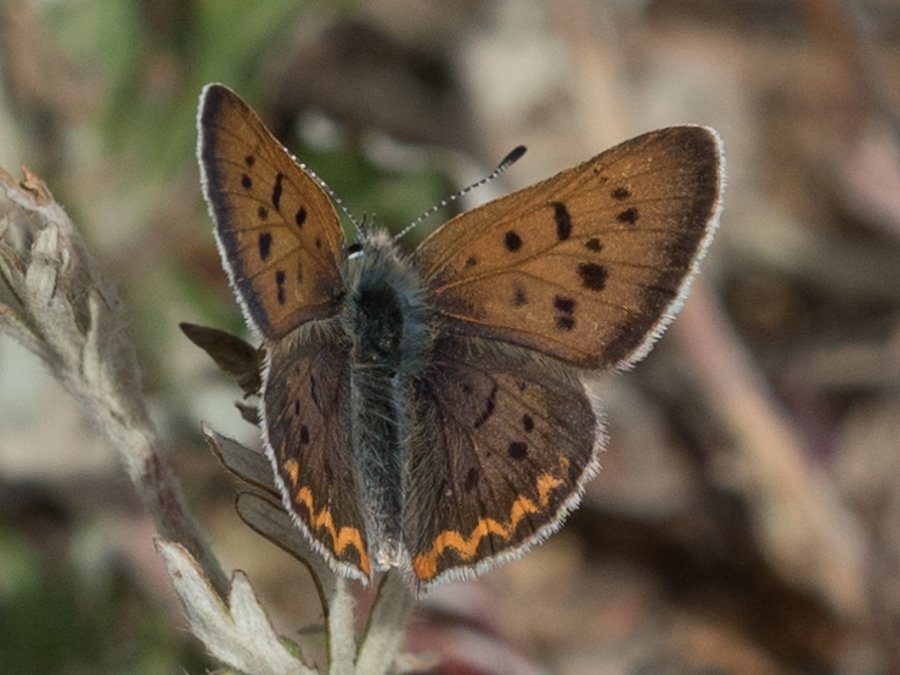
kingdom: Animalia
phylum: Arthropoda
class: Insecta
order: Lepidoptera
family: Sesiidae
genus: Sesia
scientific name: Sesia Lycaena helloides
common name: Purplish Copper
